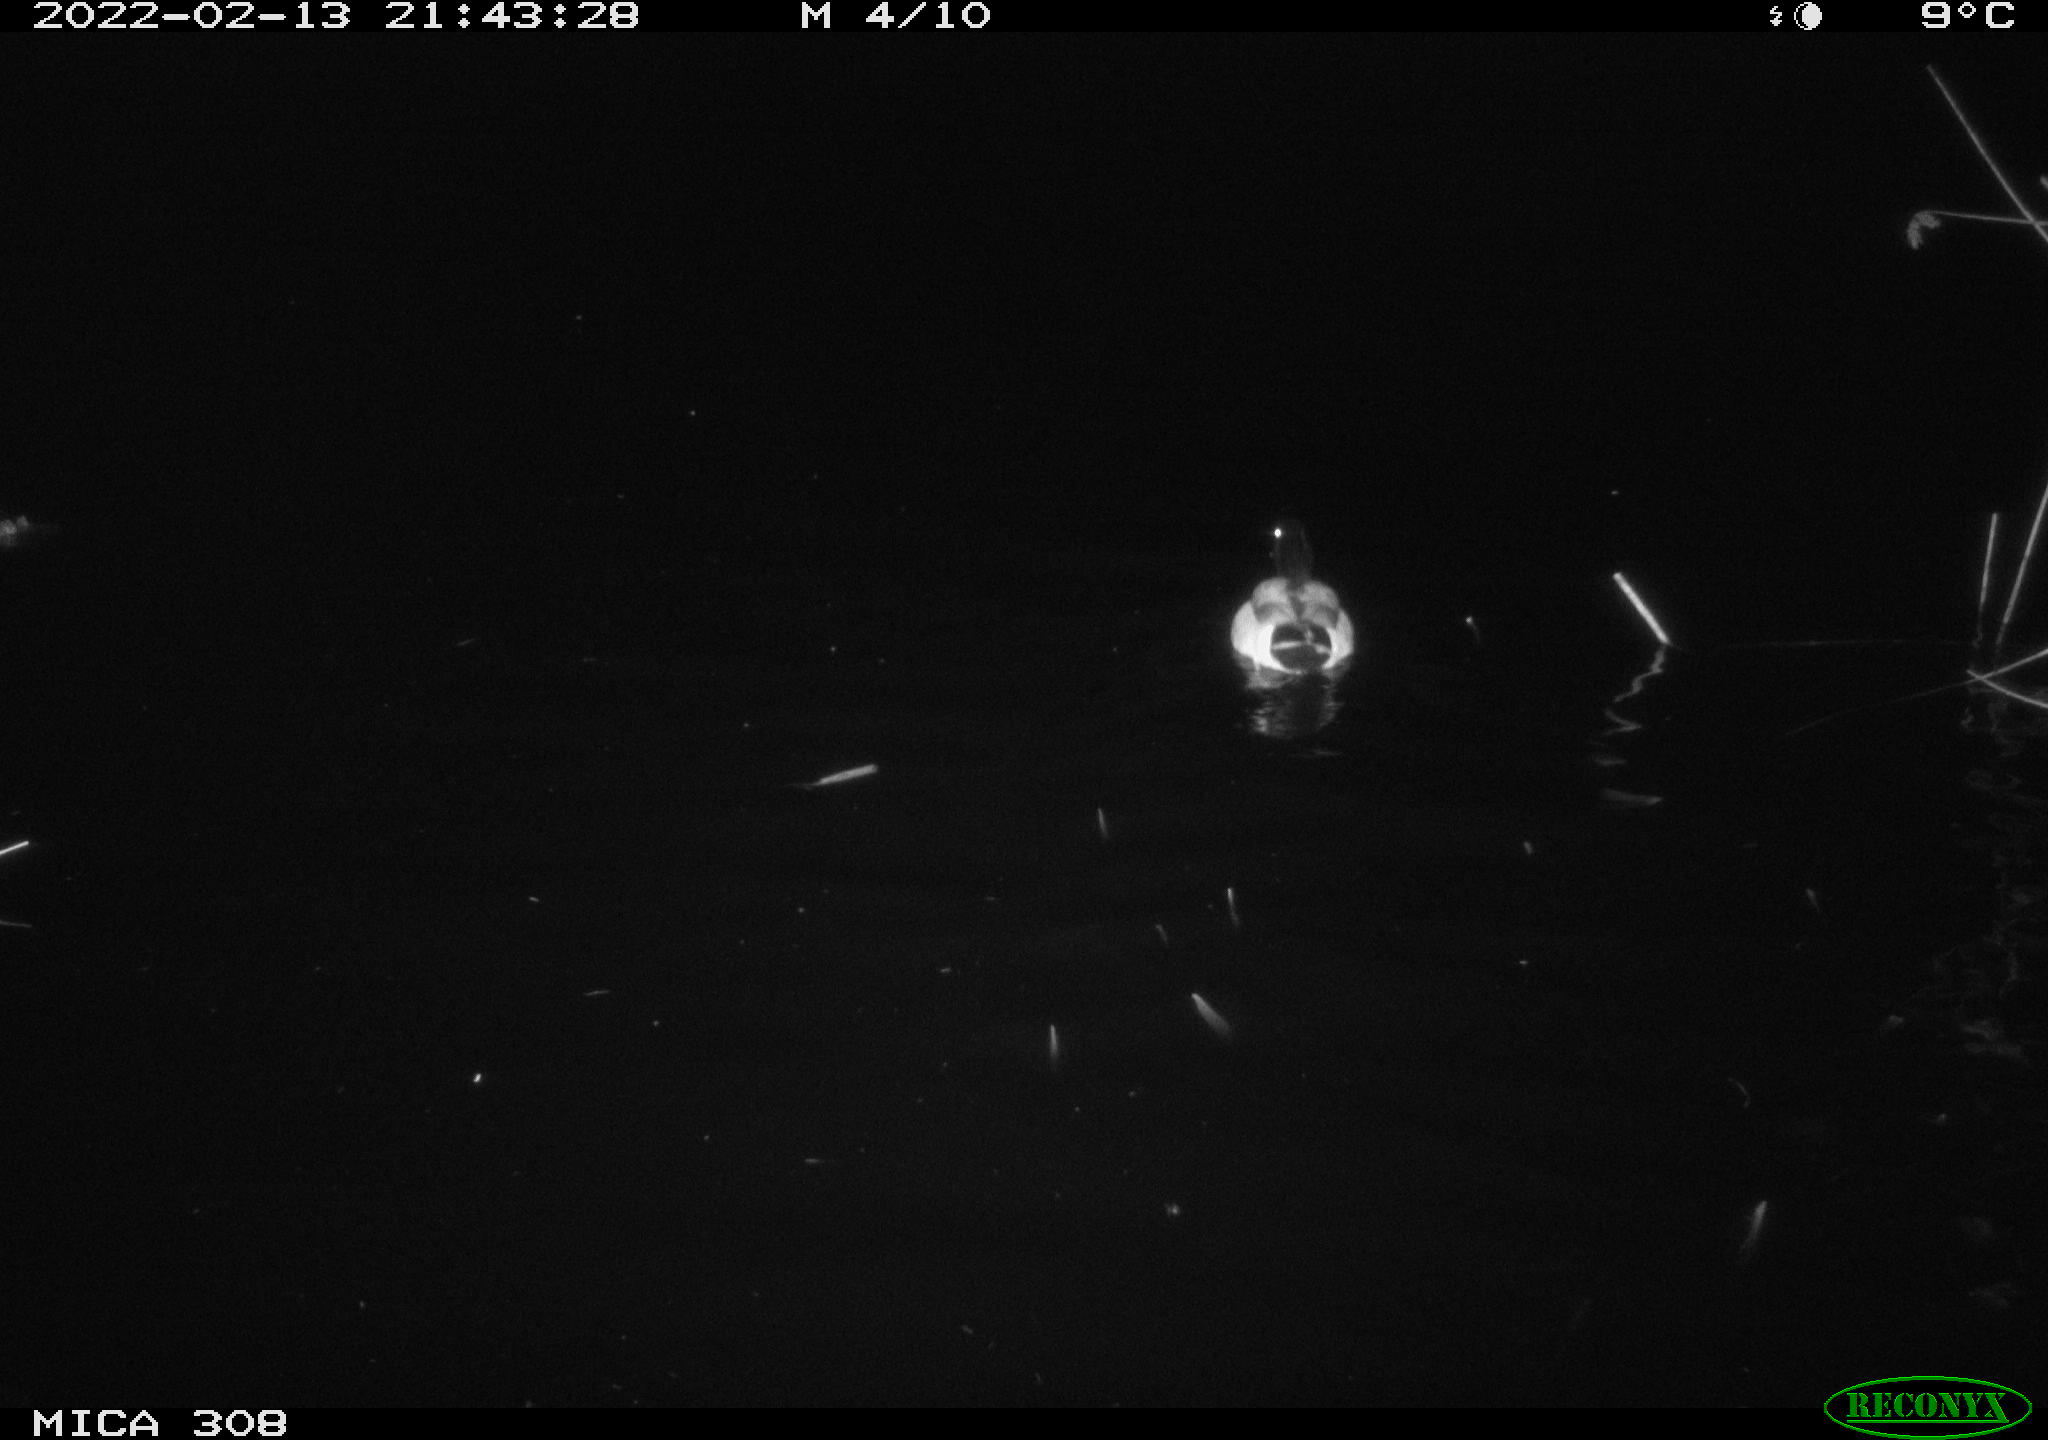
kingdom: Animalia
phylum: Chordata
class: Aves
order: Anseriformes
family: Anatidae
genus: Anas
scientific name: Anas platyrhynchos
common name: Mallard
